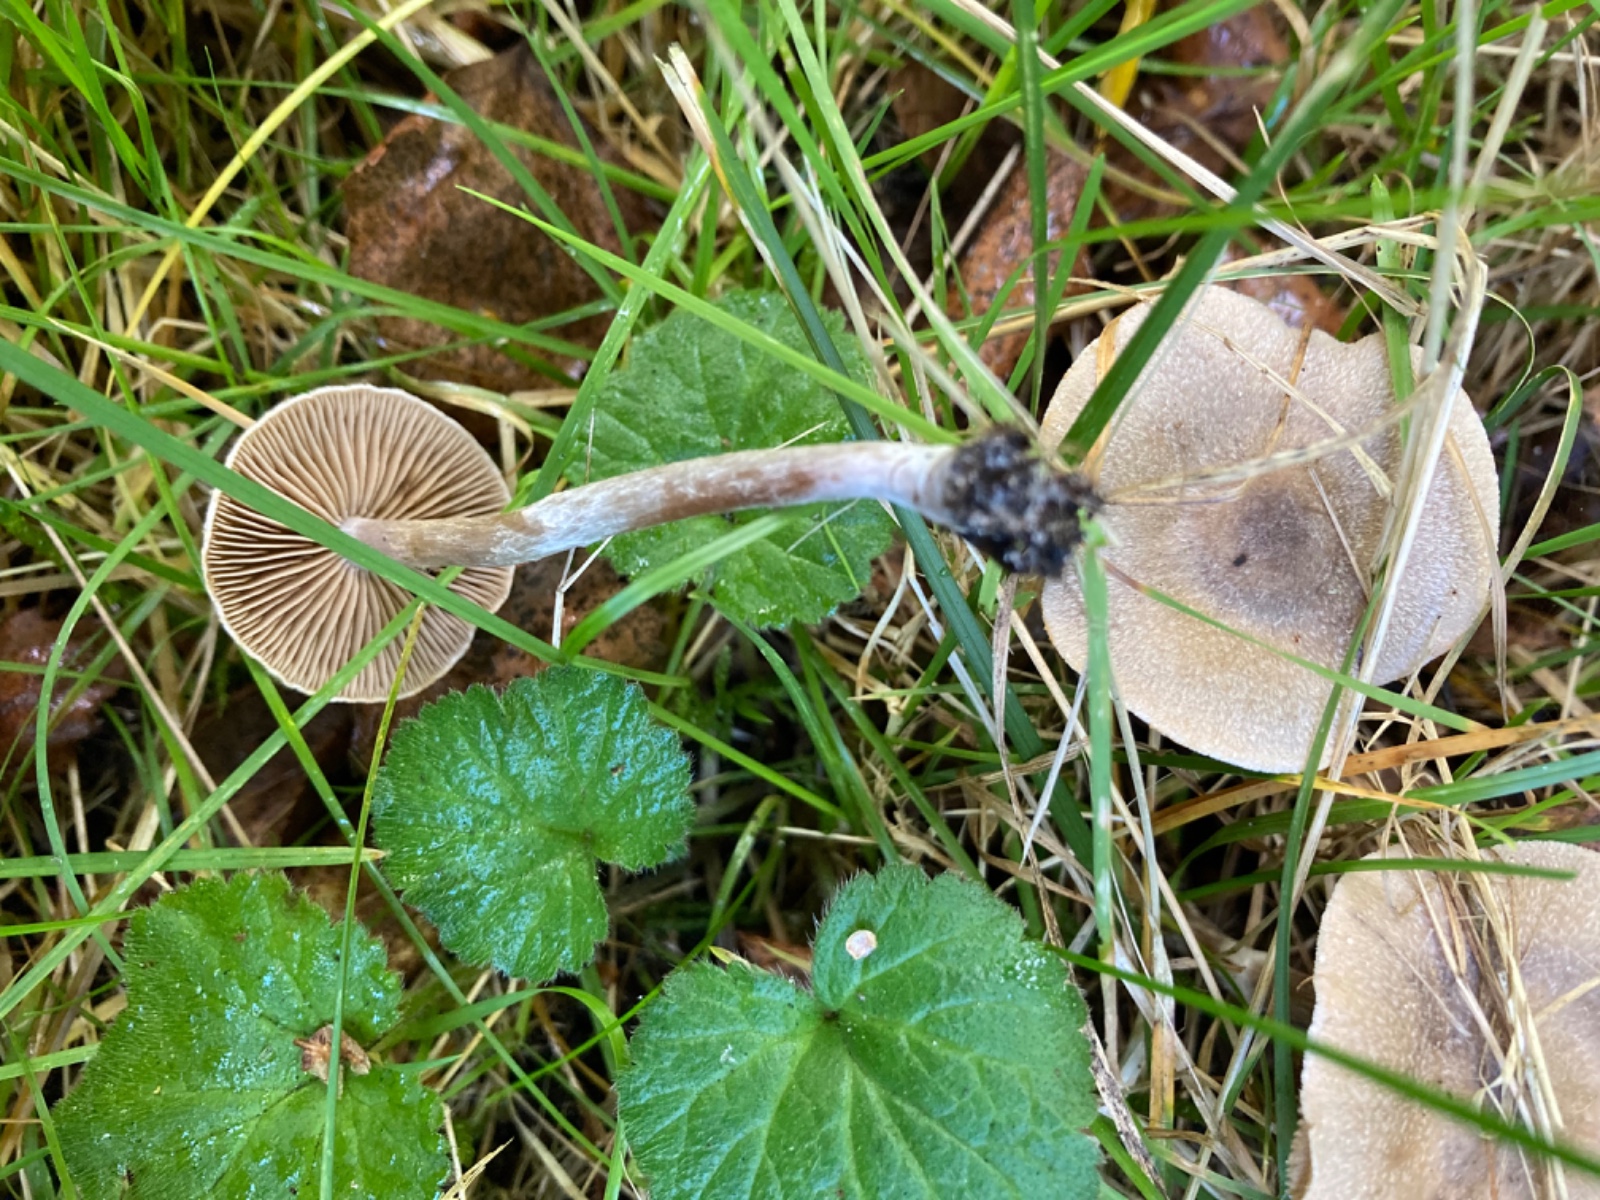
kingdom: Fungi
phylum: Basidiomycota
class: Agaricomycetes
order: Agaricales
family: Cortinariaceae
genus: Cortinarius
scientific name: Cortinarius hemitrichus
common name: hvidfnugget slørhat
